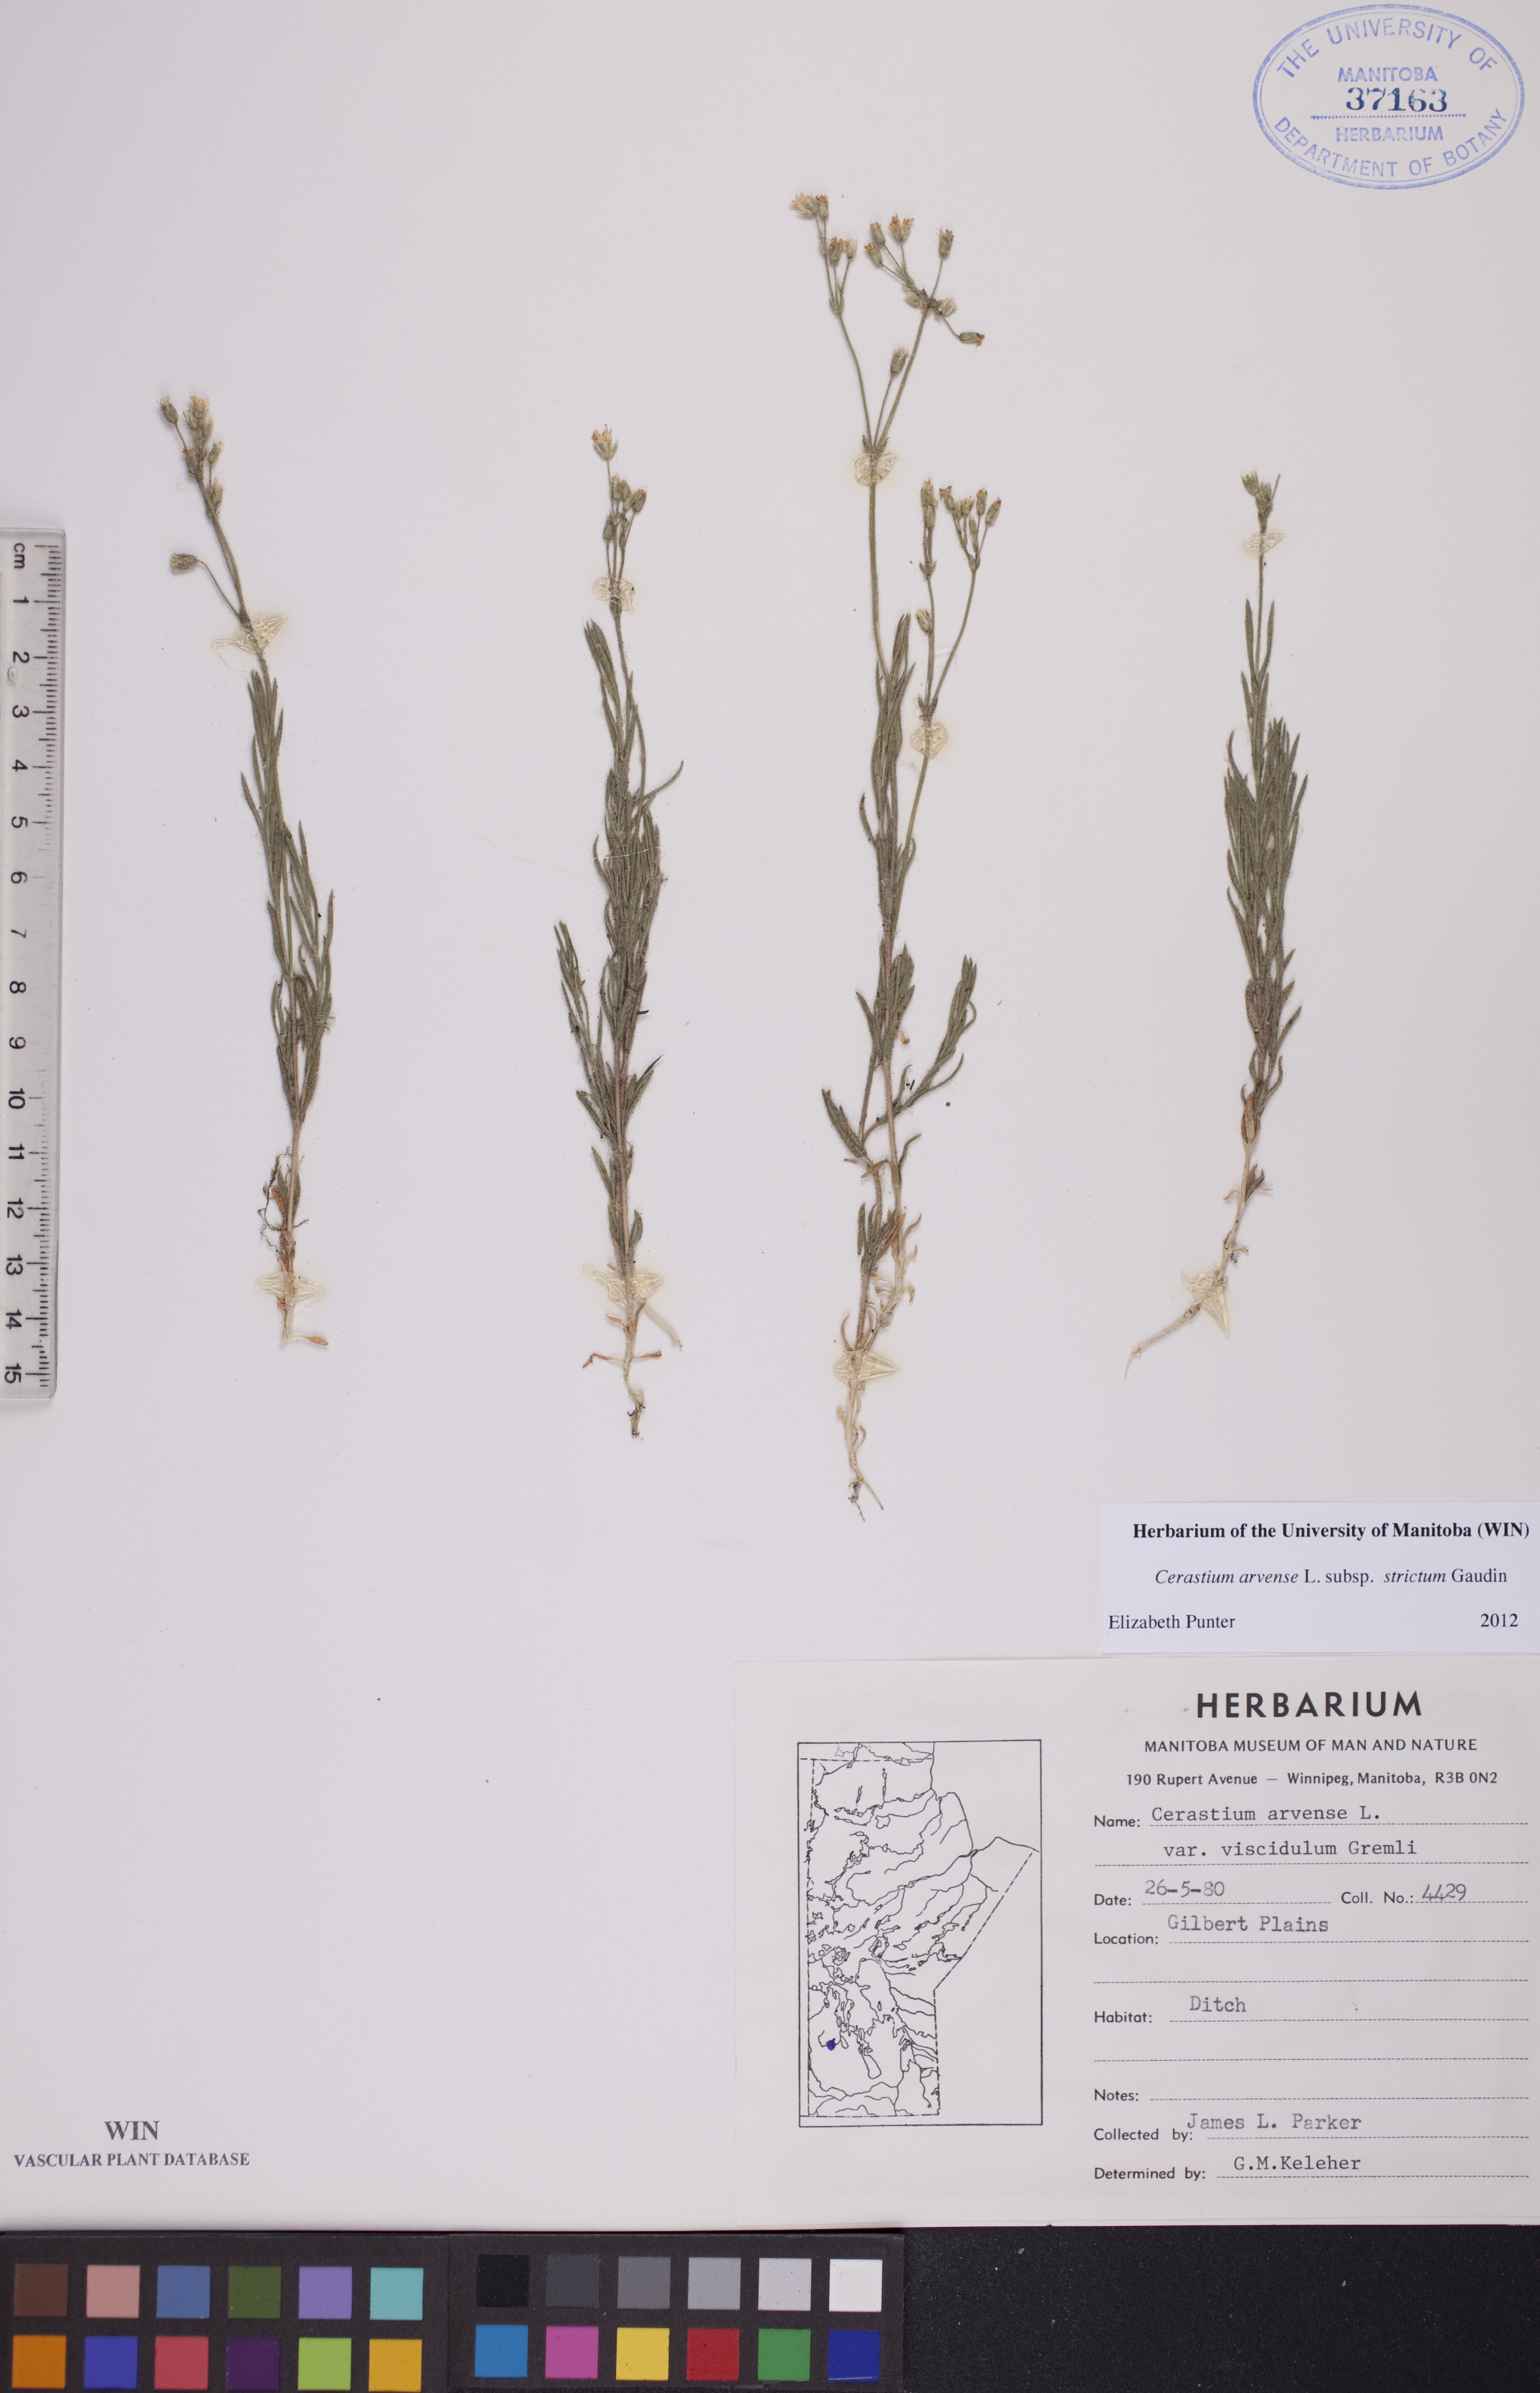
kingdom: Plantae
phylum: Tracheophyta
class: Magnoliopsida
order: Caryophyllales
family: Caryophyllaceae
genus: Cerastium
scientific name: Cerastium elongatum
